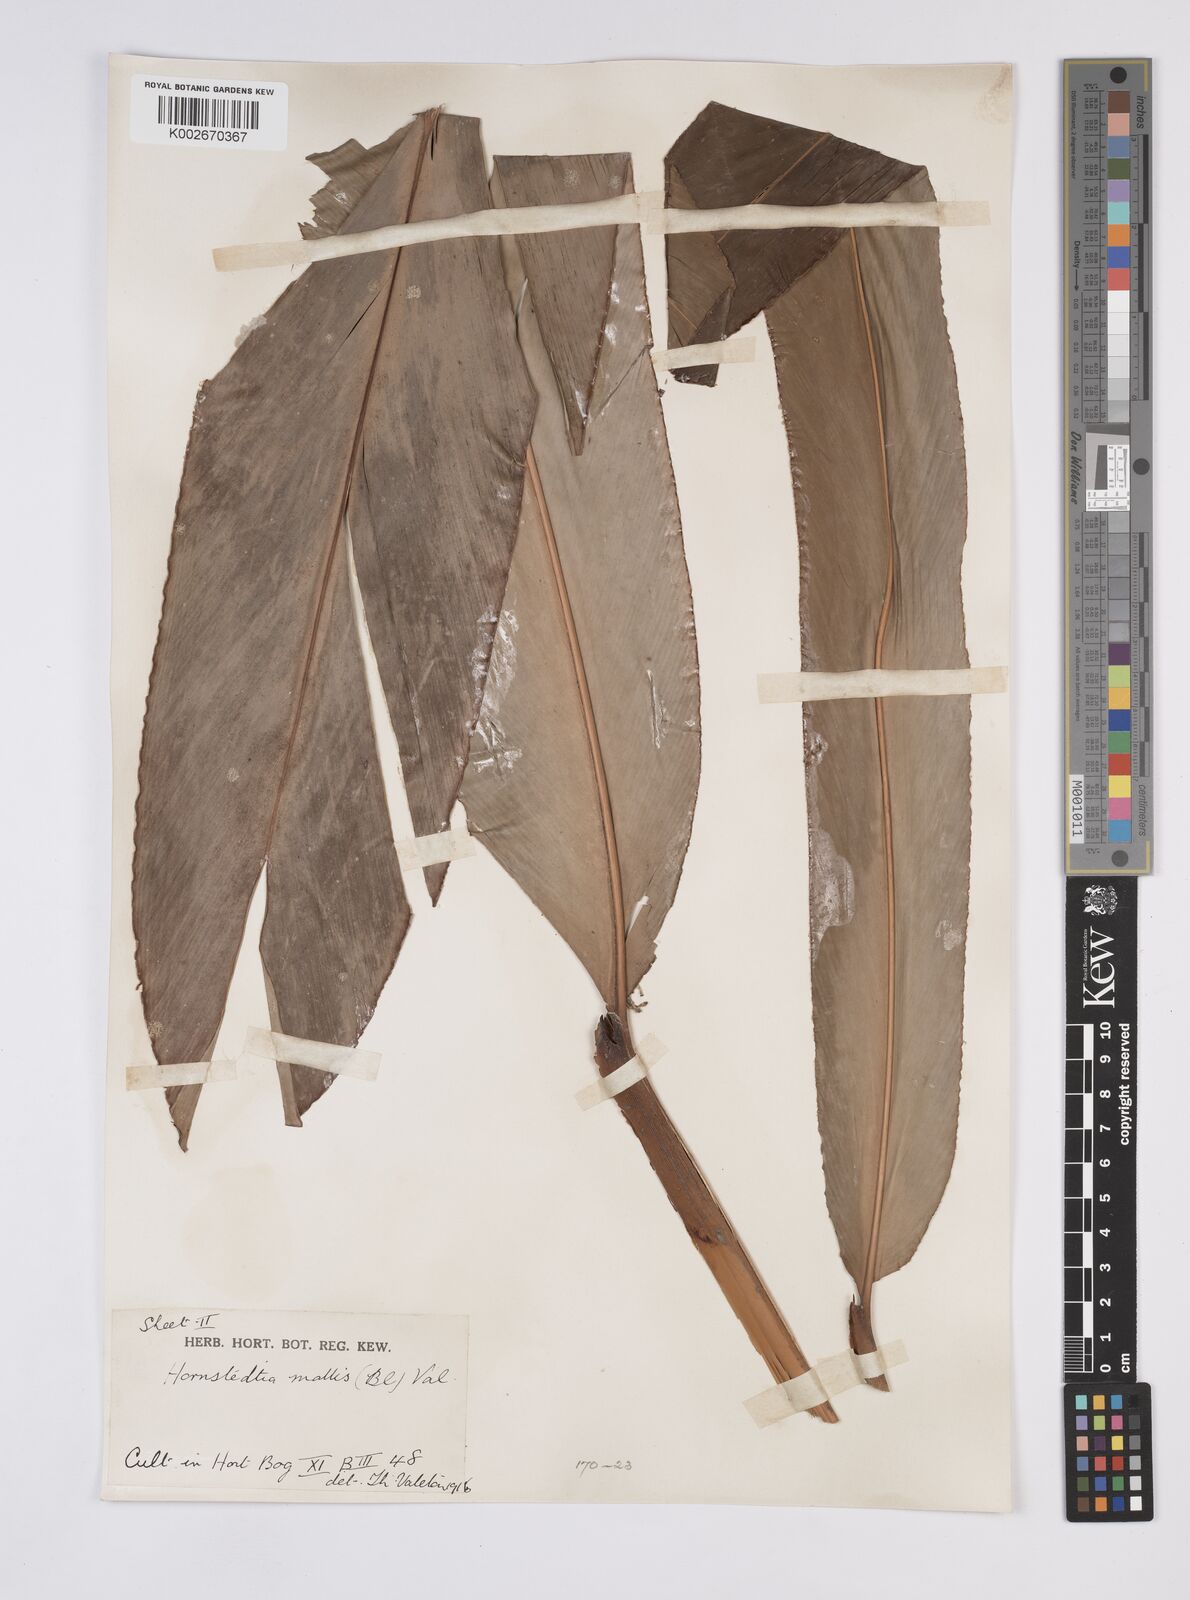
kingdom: Plantae
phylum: Tracheophyta
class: Liliopsida
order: Zingiberales
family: Zingiberaceae
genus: Hornstedtia
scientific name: Hornstedtia mollis
